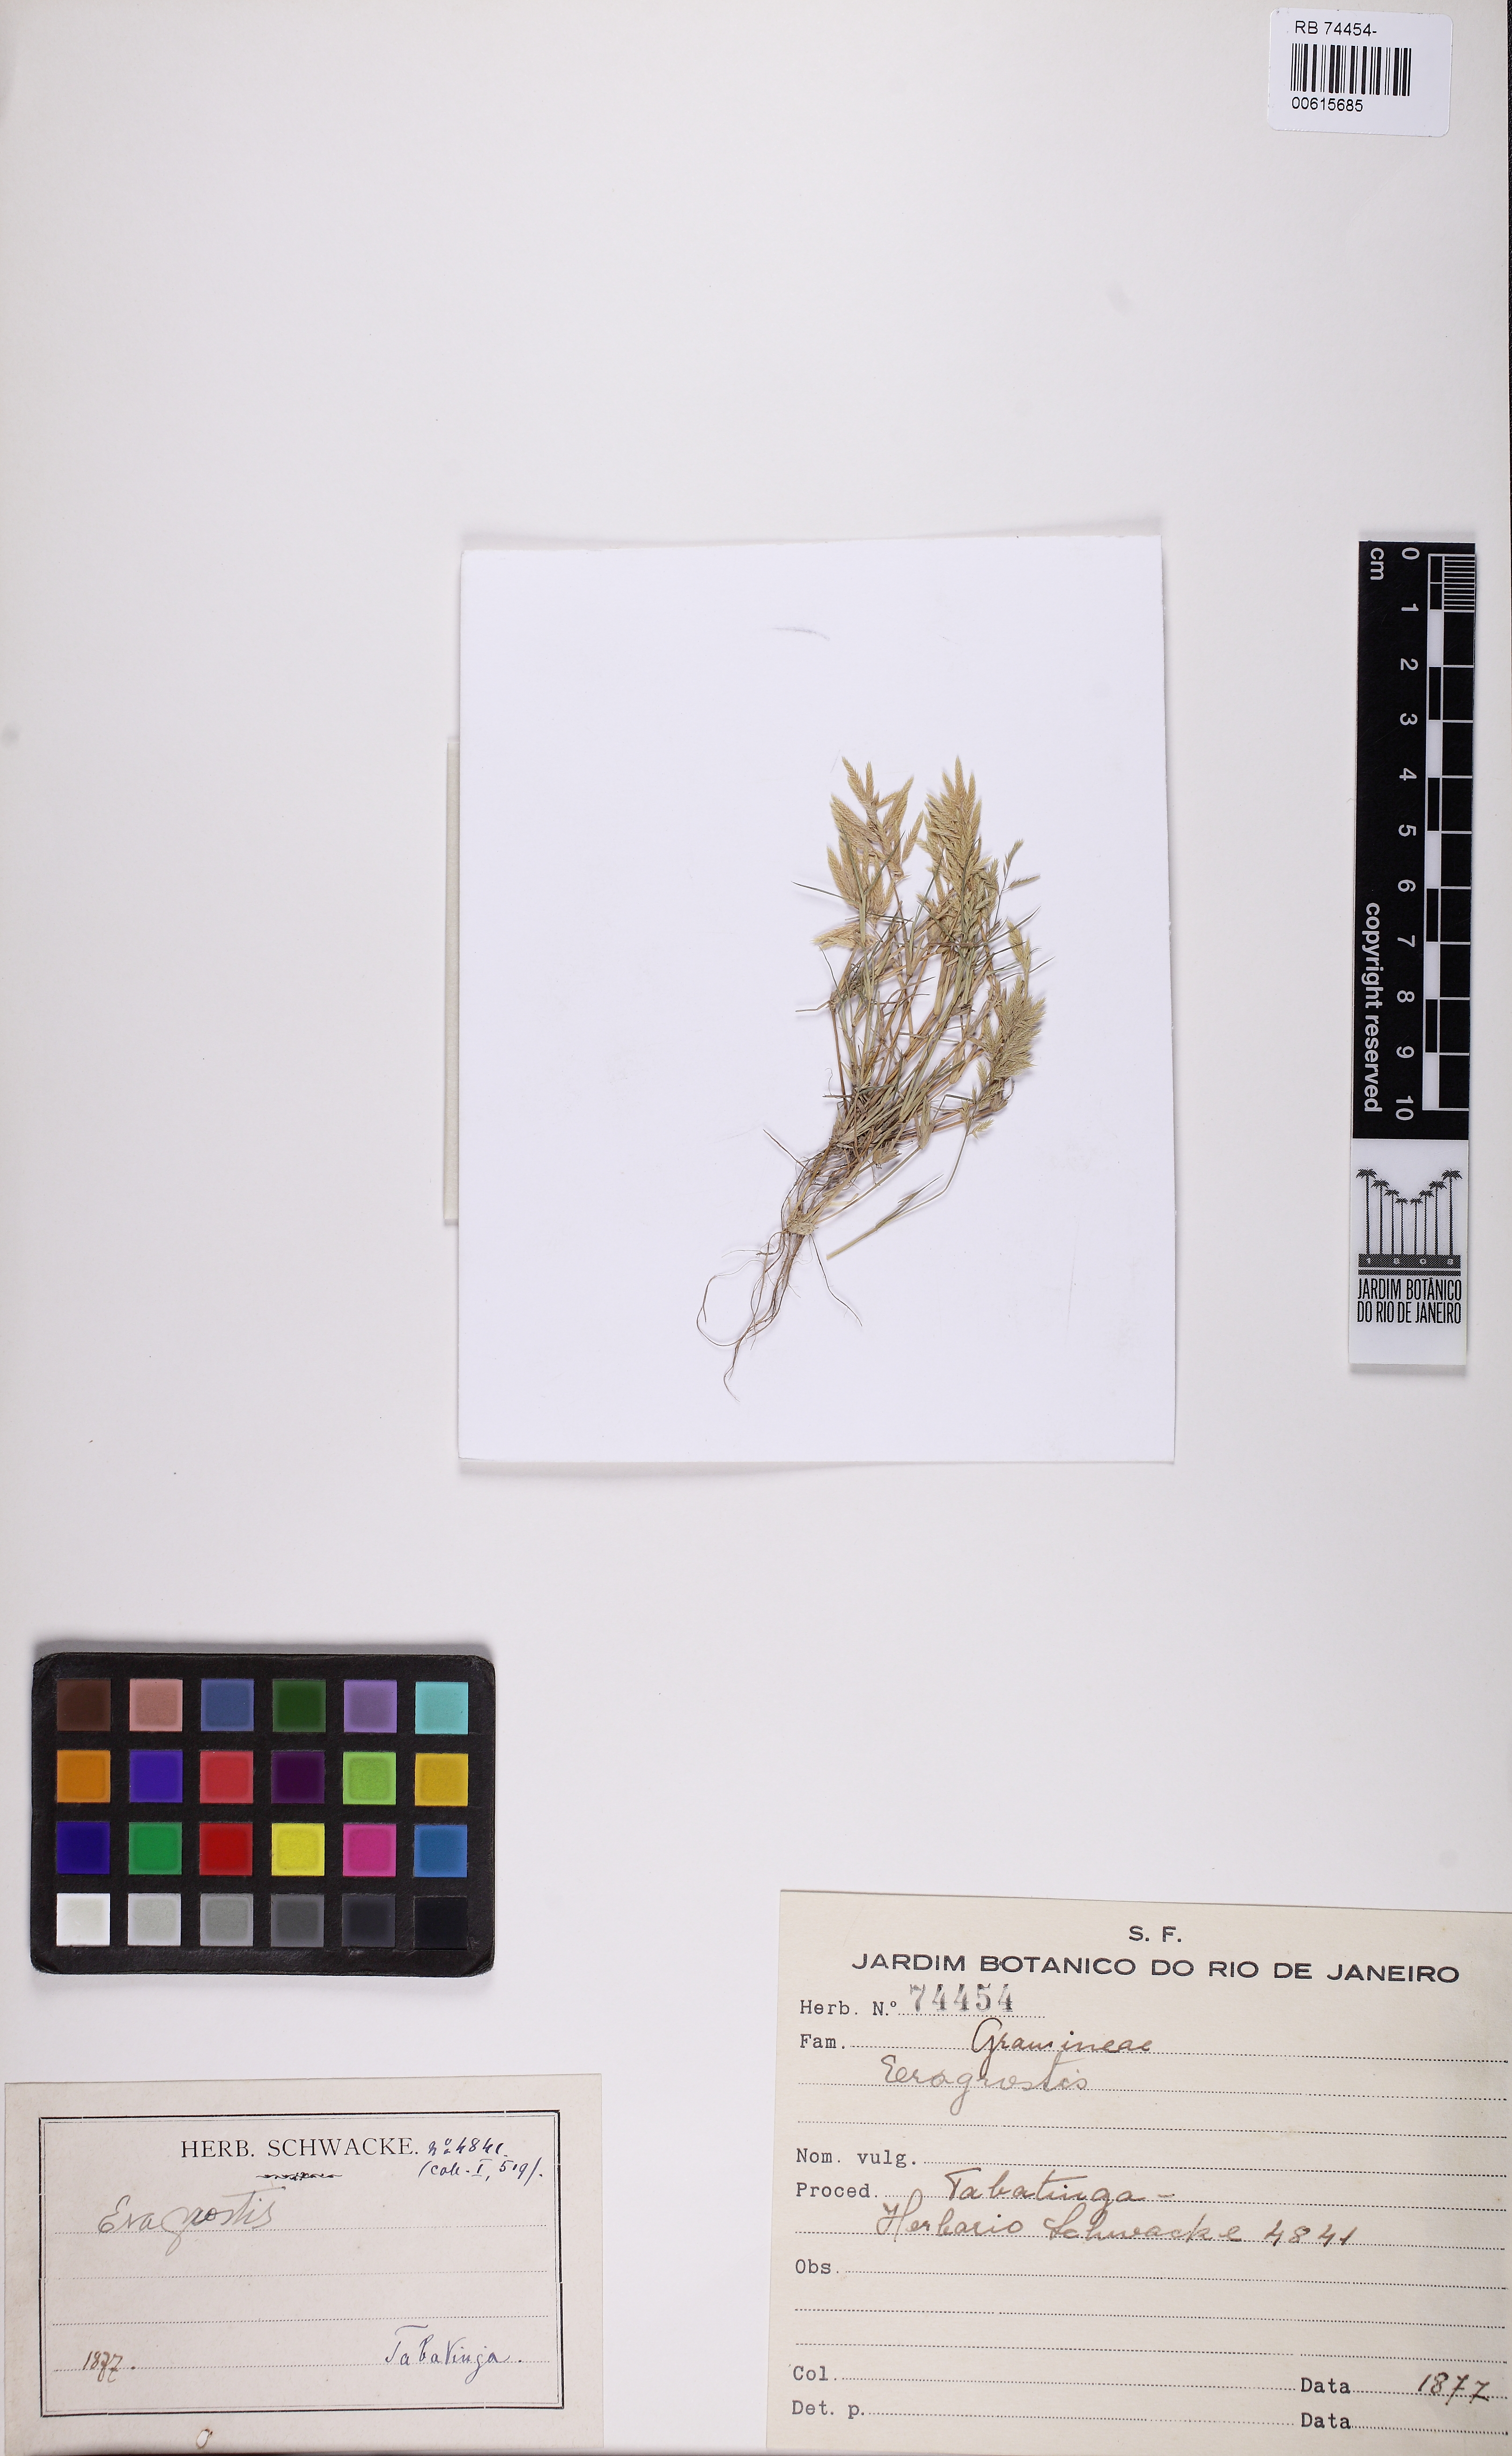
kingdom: Plantae
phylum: Tracheophyta
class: Liliopsida
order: Poales
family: Poaceae
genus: Eragrostis
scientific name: Eragrostis
